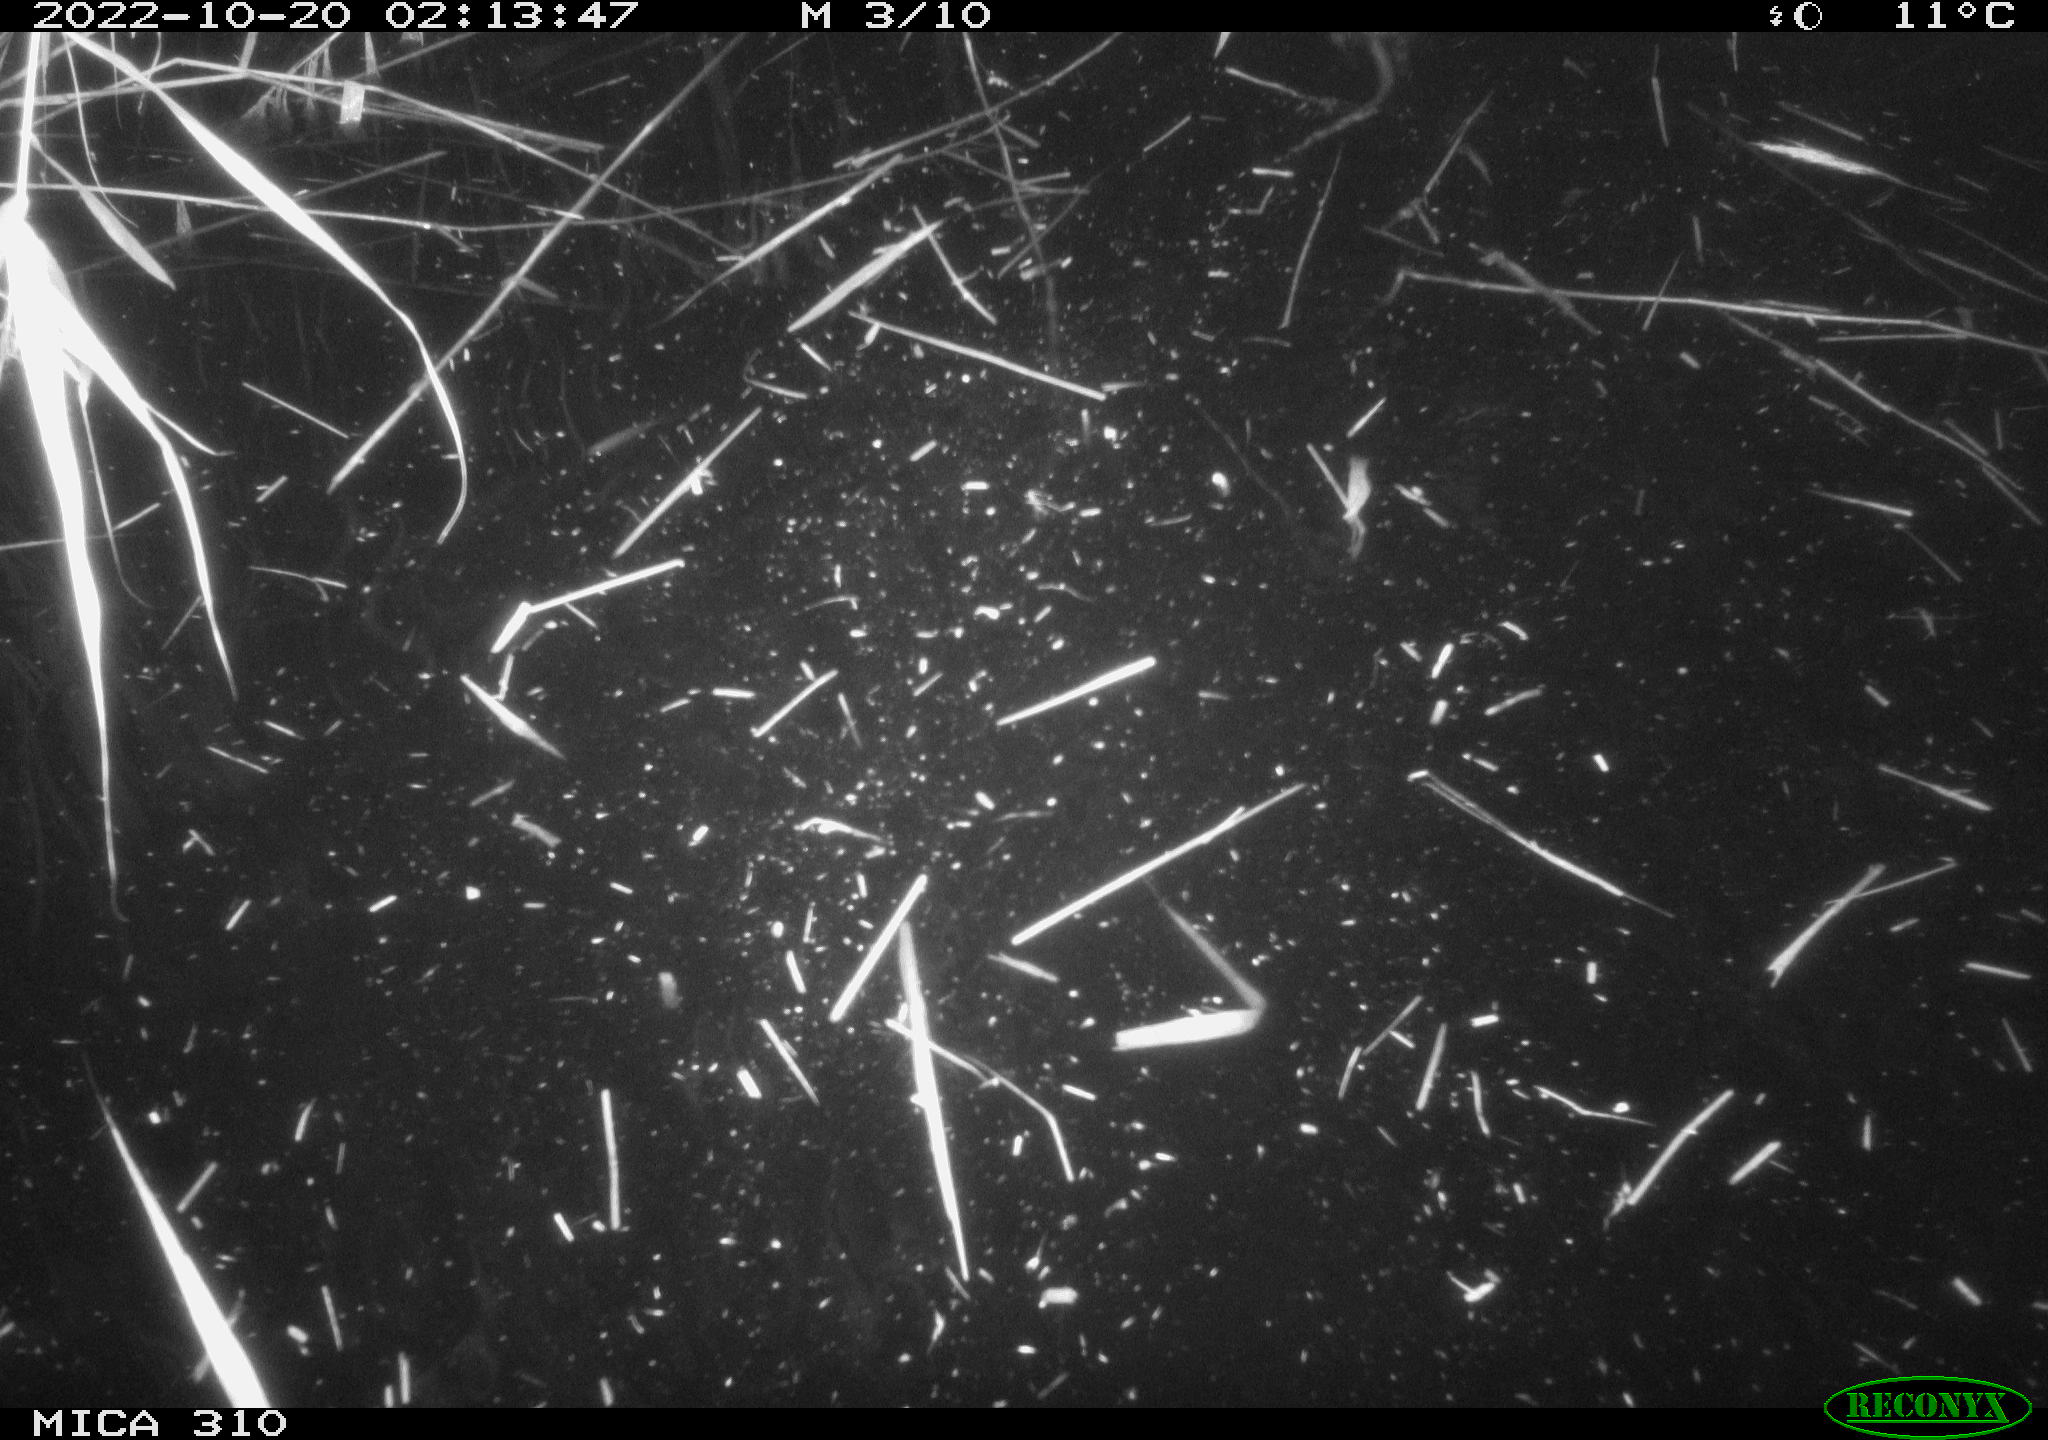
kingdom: Animalia
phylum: Chordata
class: Mammalia
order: Rodentia
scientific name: Rodentia
